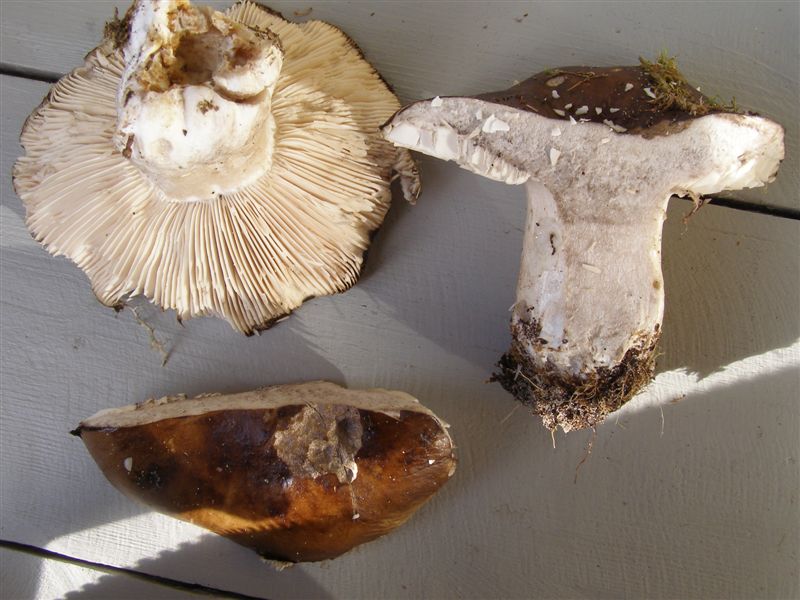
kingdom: Fungi
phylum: Basidiomycota
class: Agaricomycetes
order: Russulales
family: Russulaceae
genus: Russula
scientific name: Russula adusta
